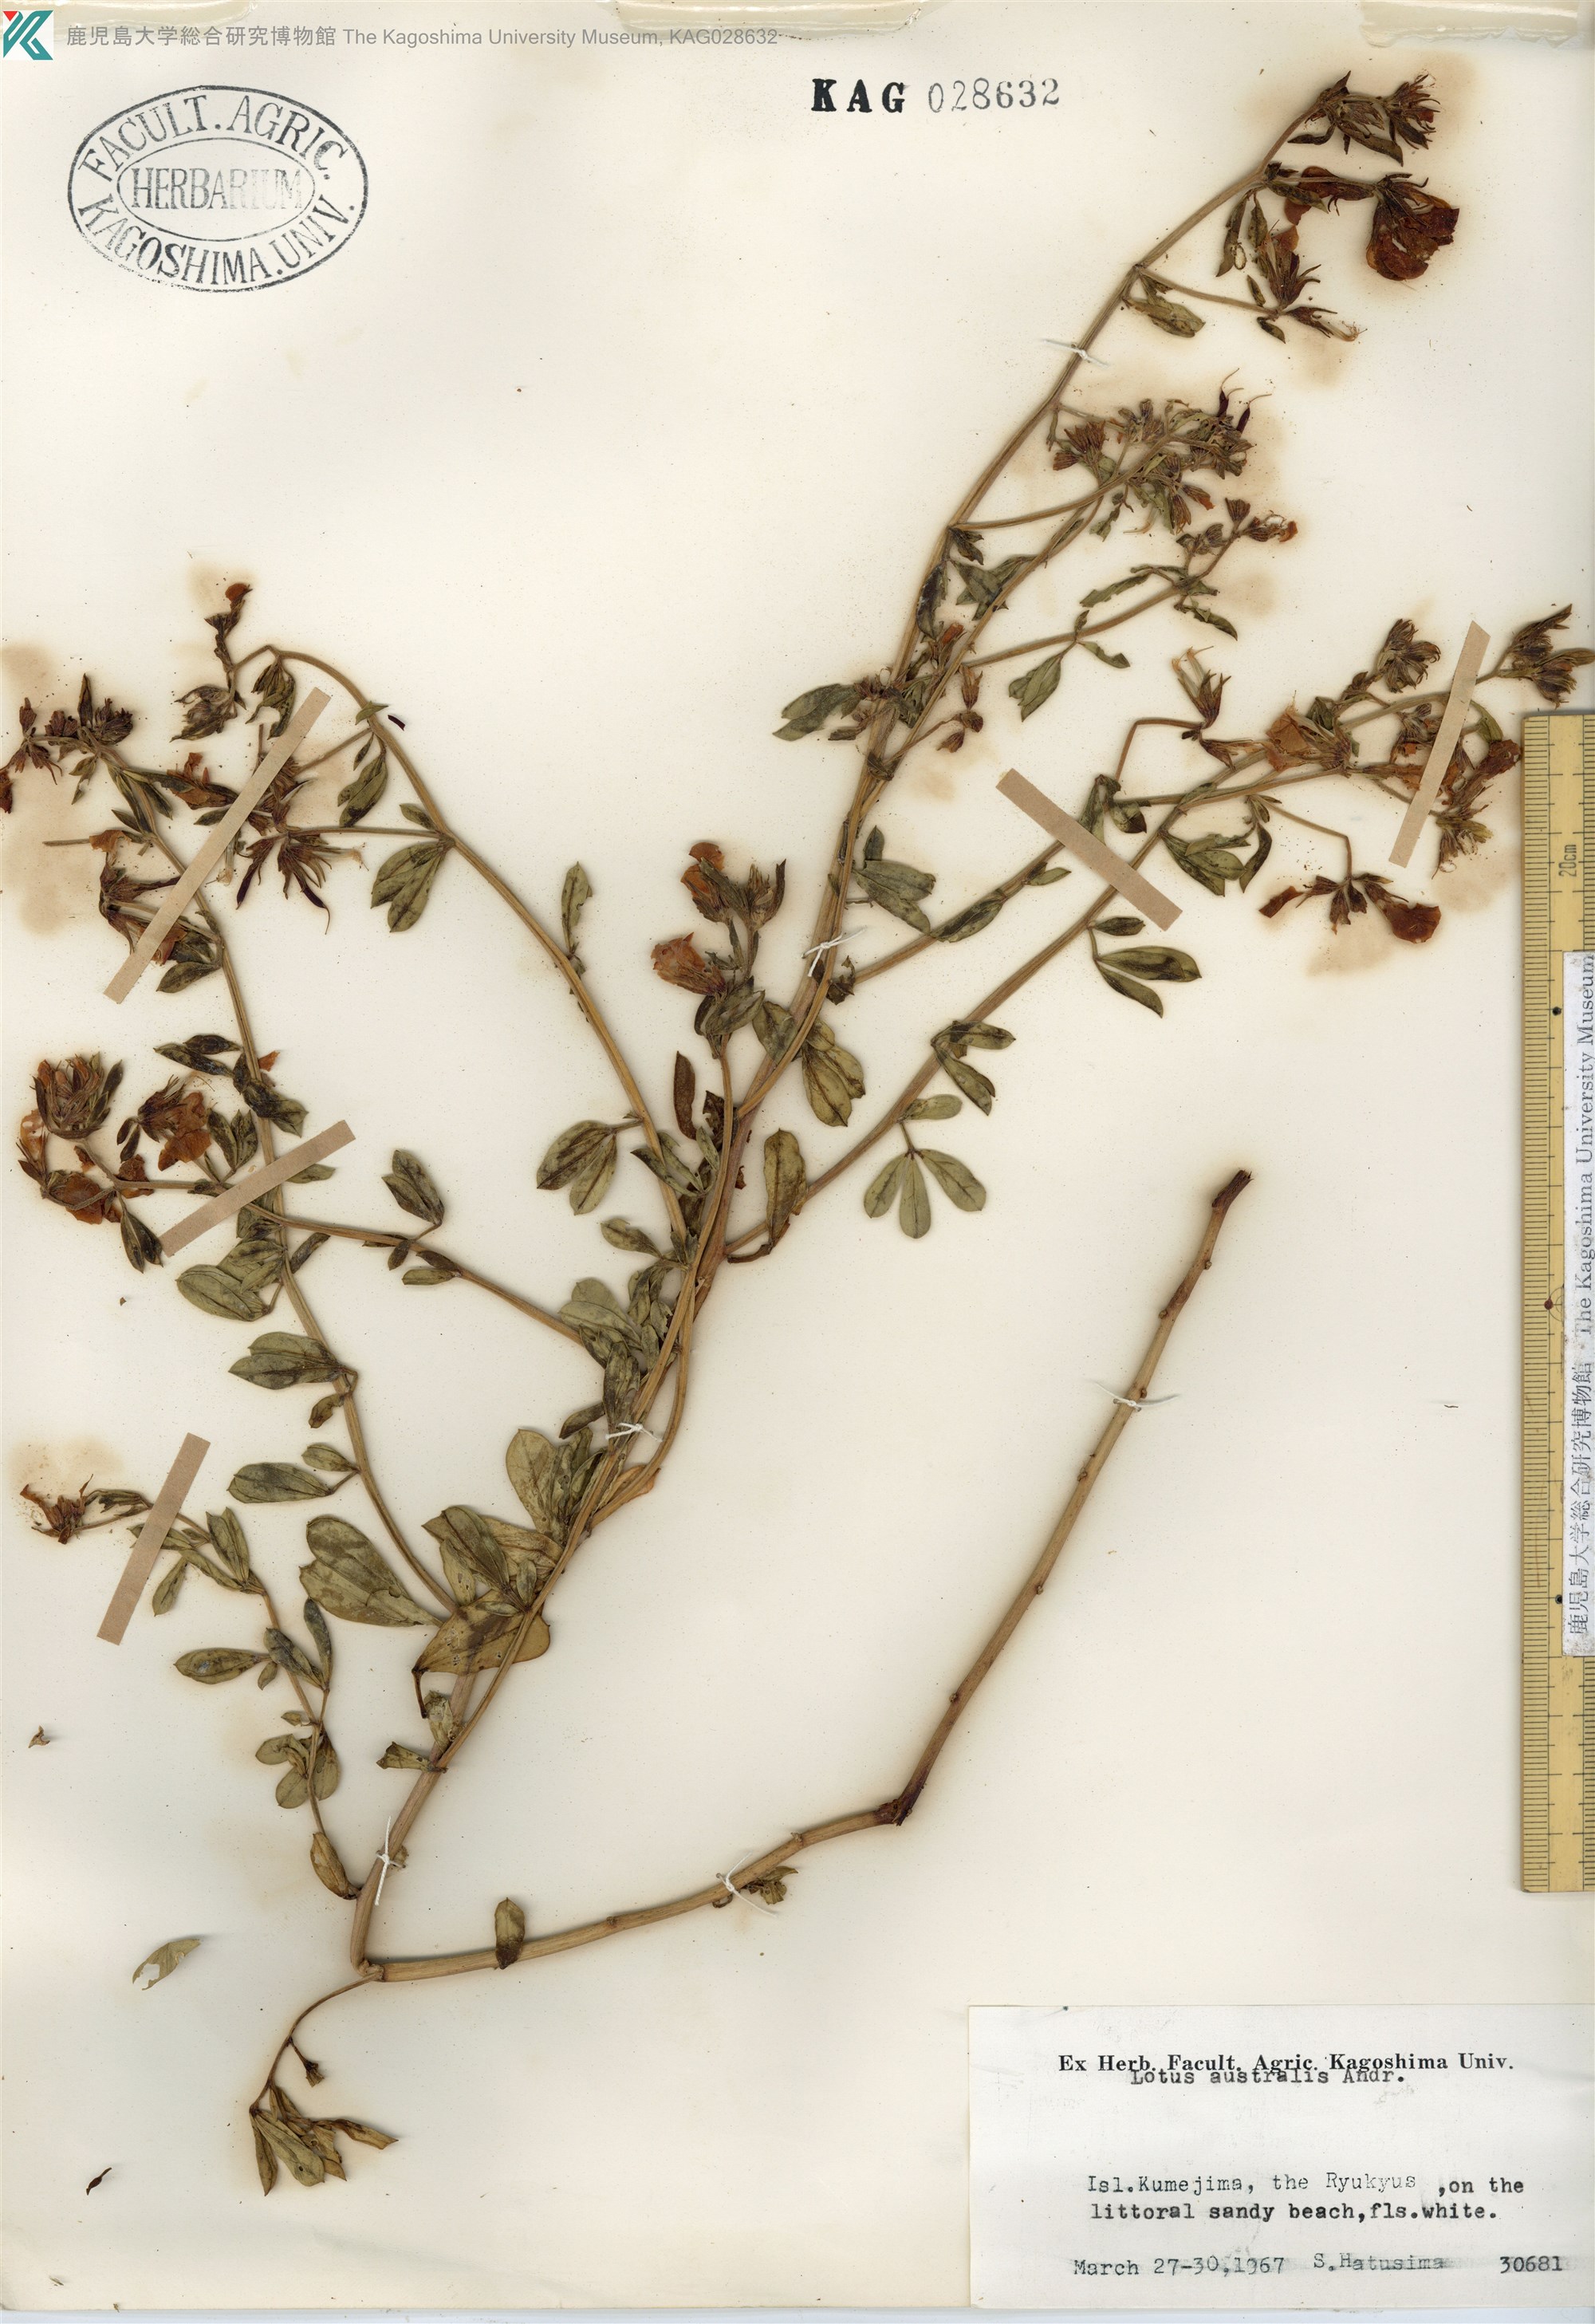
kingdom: Plantae
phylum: Tracheophyta
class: Magnoliopsida
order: Fabales
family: Fabaceae
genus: Lotus
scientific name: Lotus taitungensis
